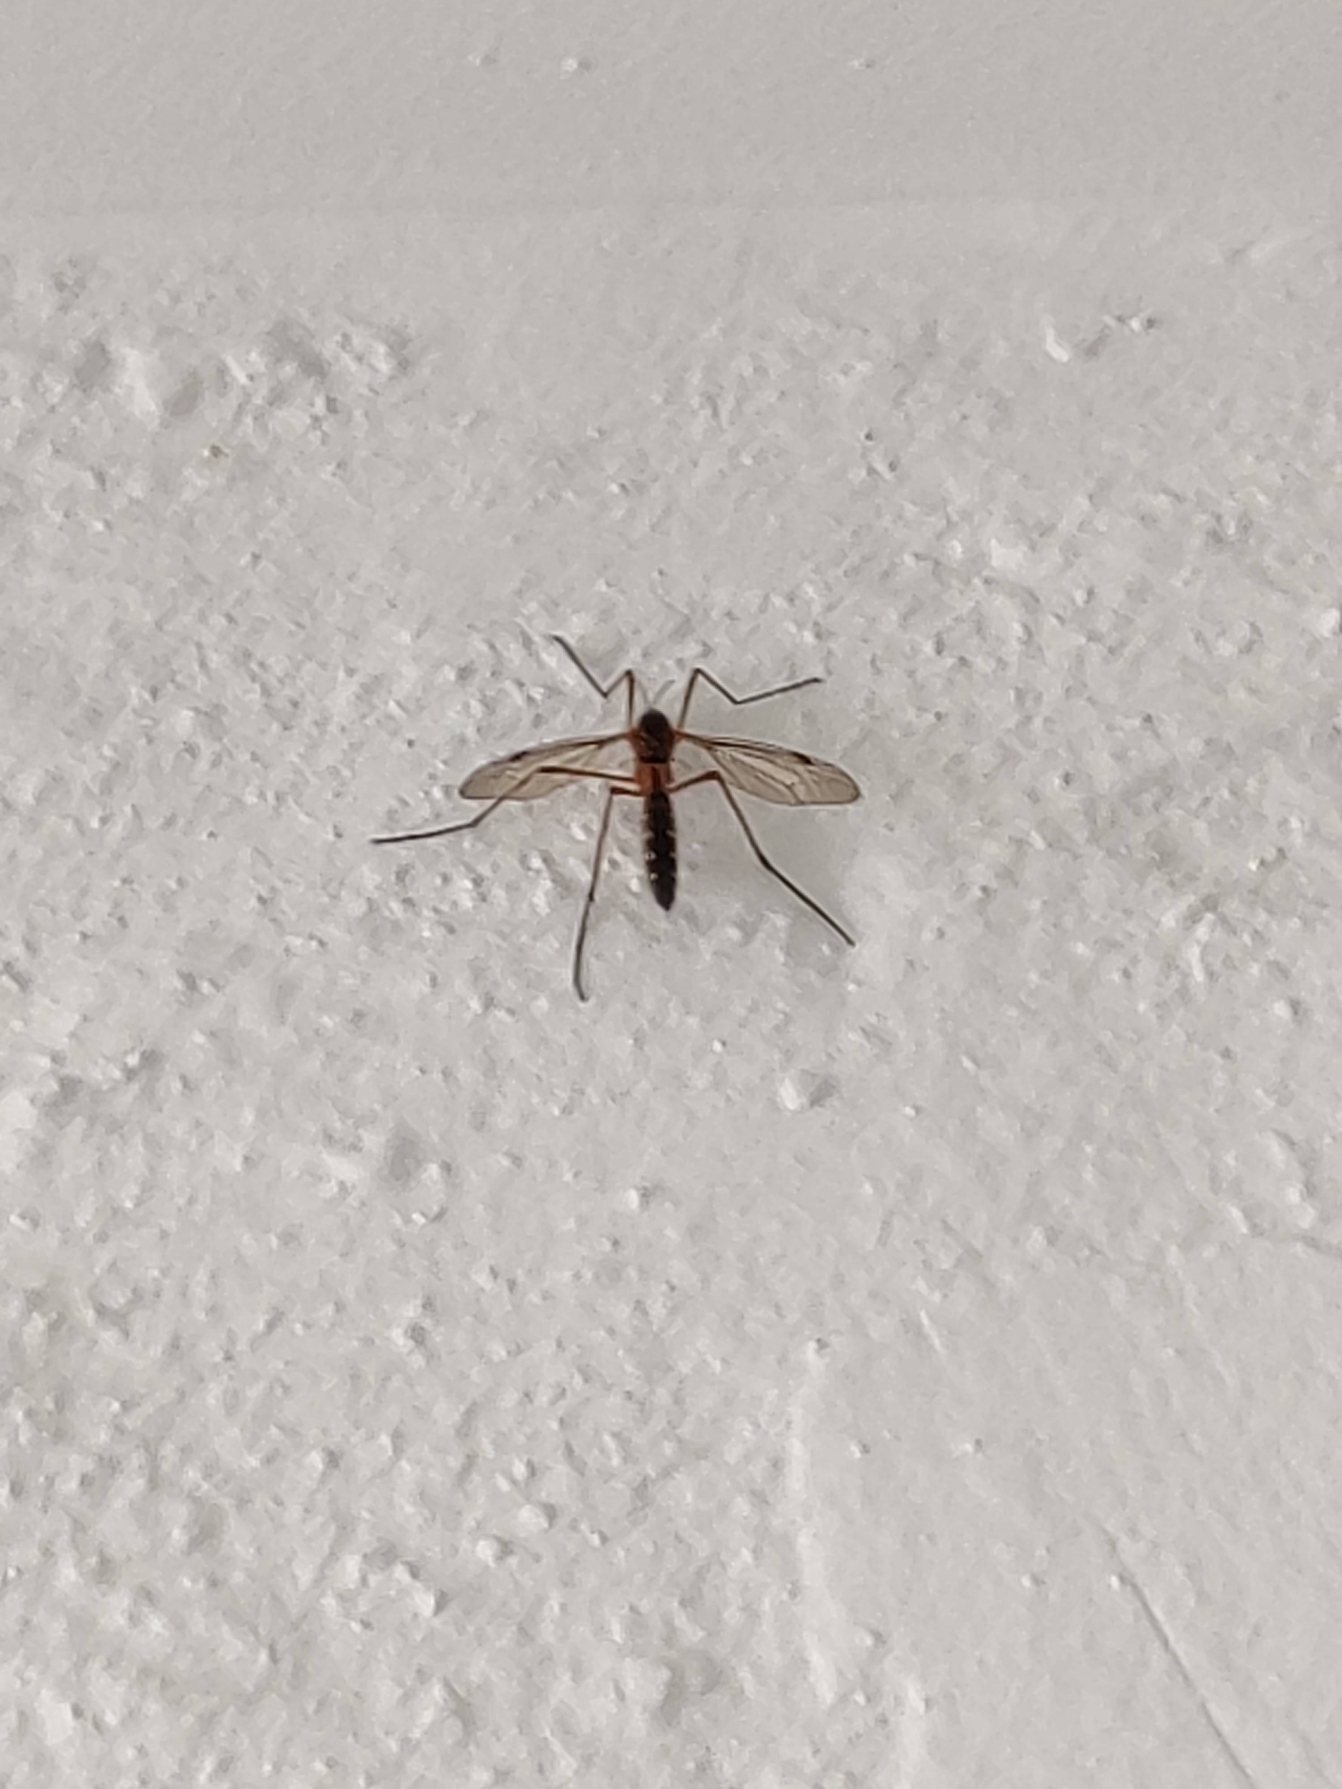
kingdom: Animalia
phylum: Arthropoda
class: Insecta
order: Diptera
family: Tipulidae
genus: Ctenophora
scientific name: Ctenophora pectinicornis
